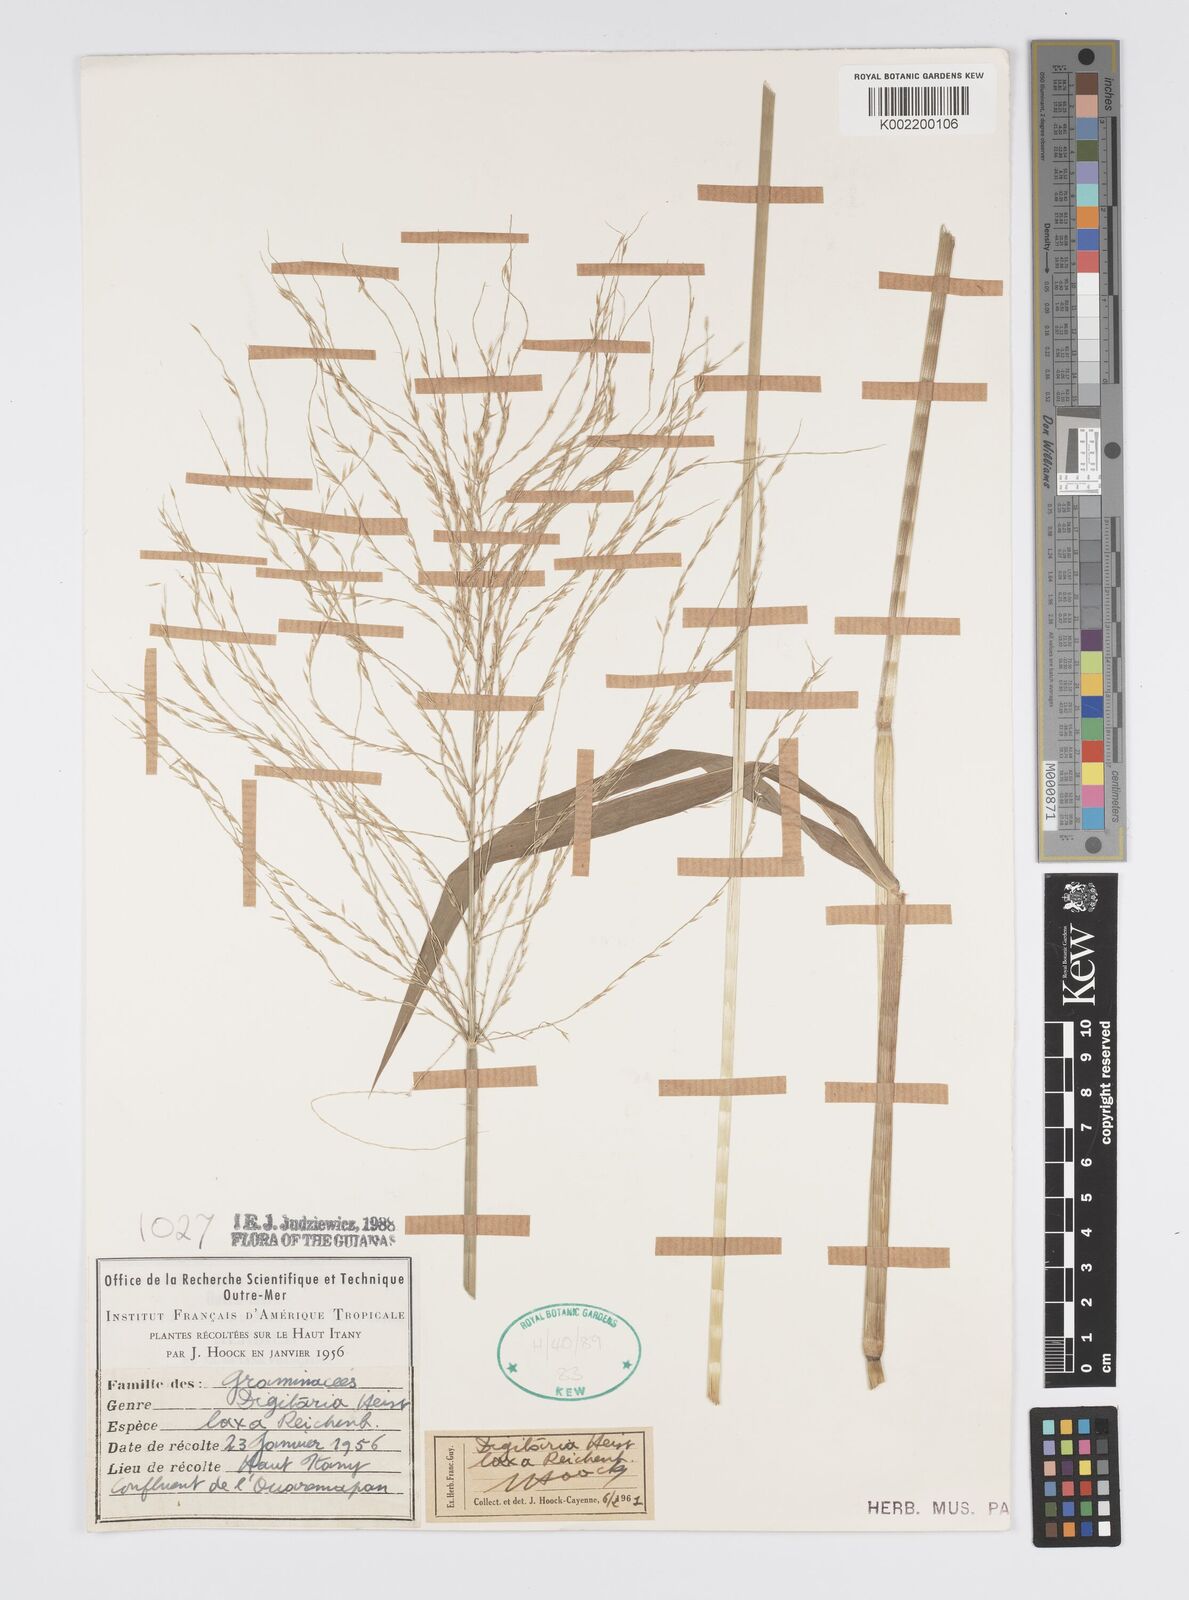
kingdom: Plantae
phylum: Tracheophyta
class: Liliopsida
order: Poales
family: Poaceae
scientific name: Poaceae
